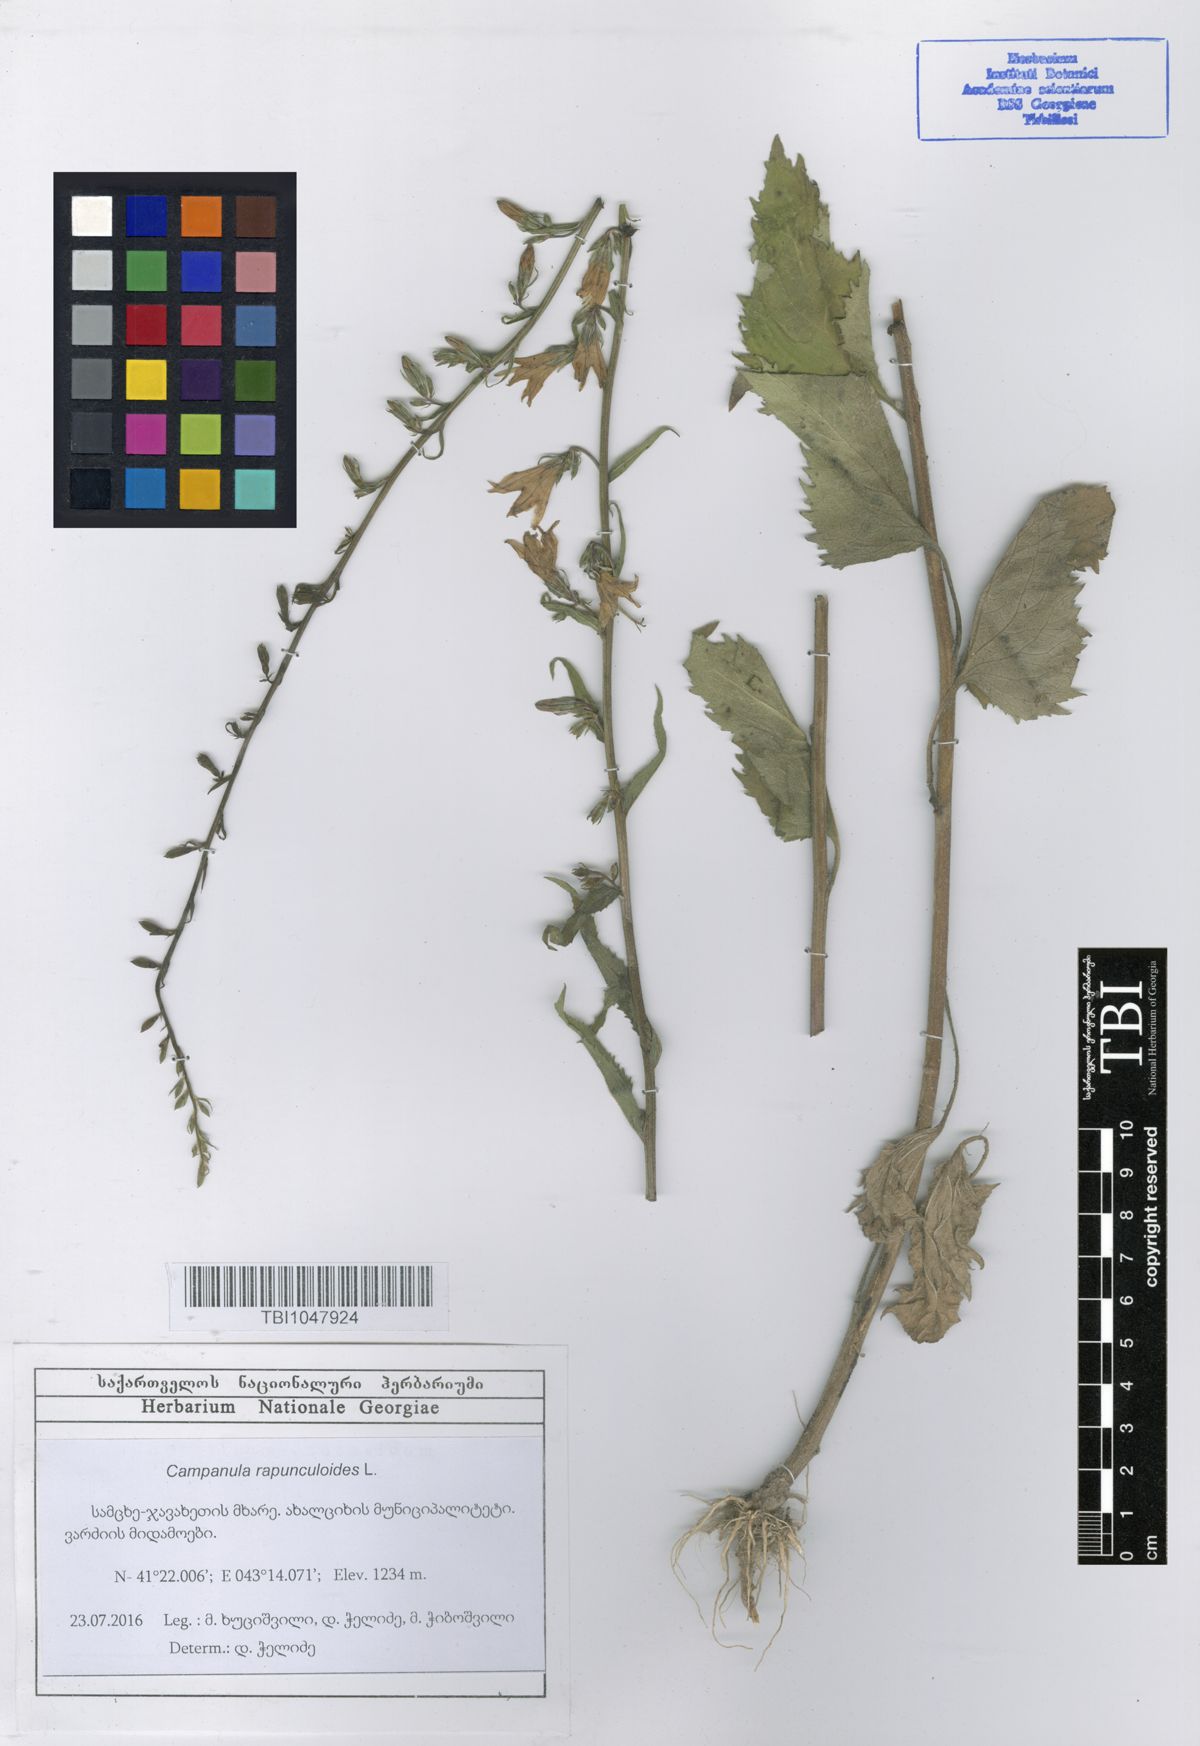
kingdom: Plantae
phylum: Tracheophyta
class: Magnoliopsida
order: Asterales
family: Campanulaceae
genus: Campanula
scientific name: Campanula rapunculoides
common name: Creeping bellflower
